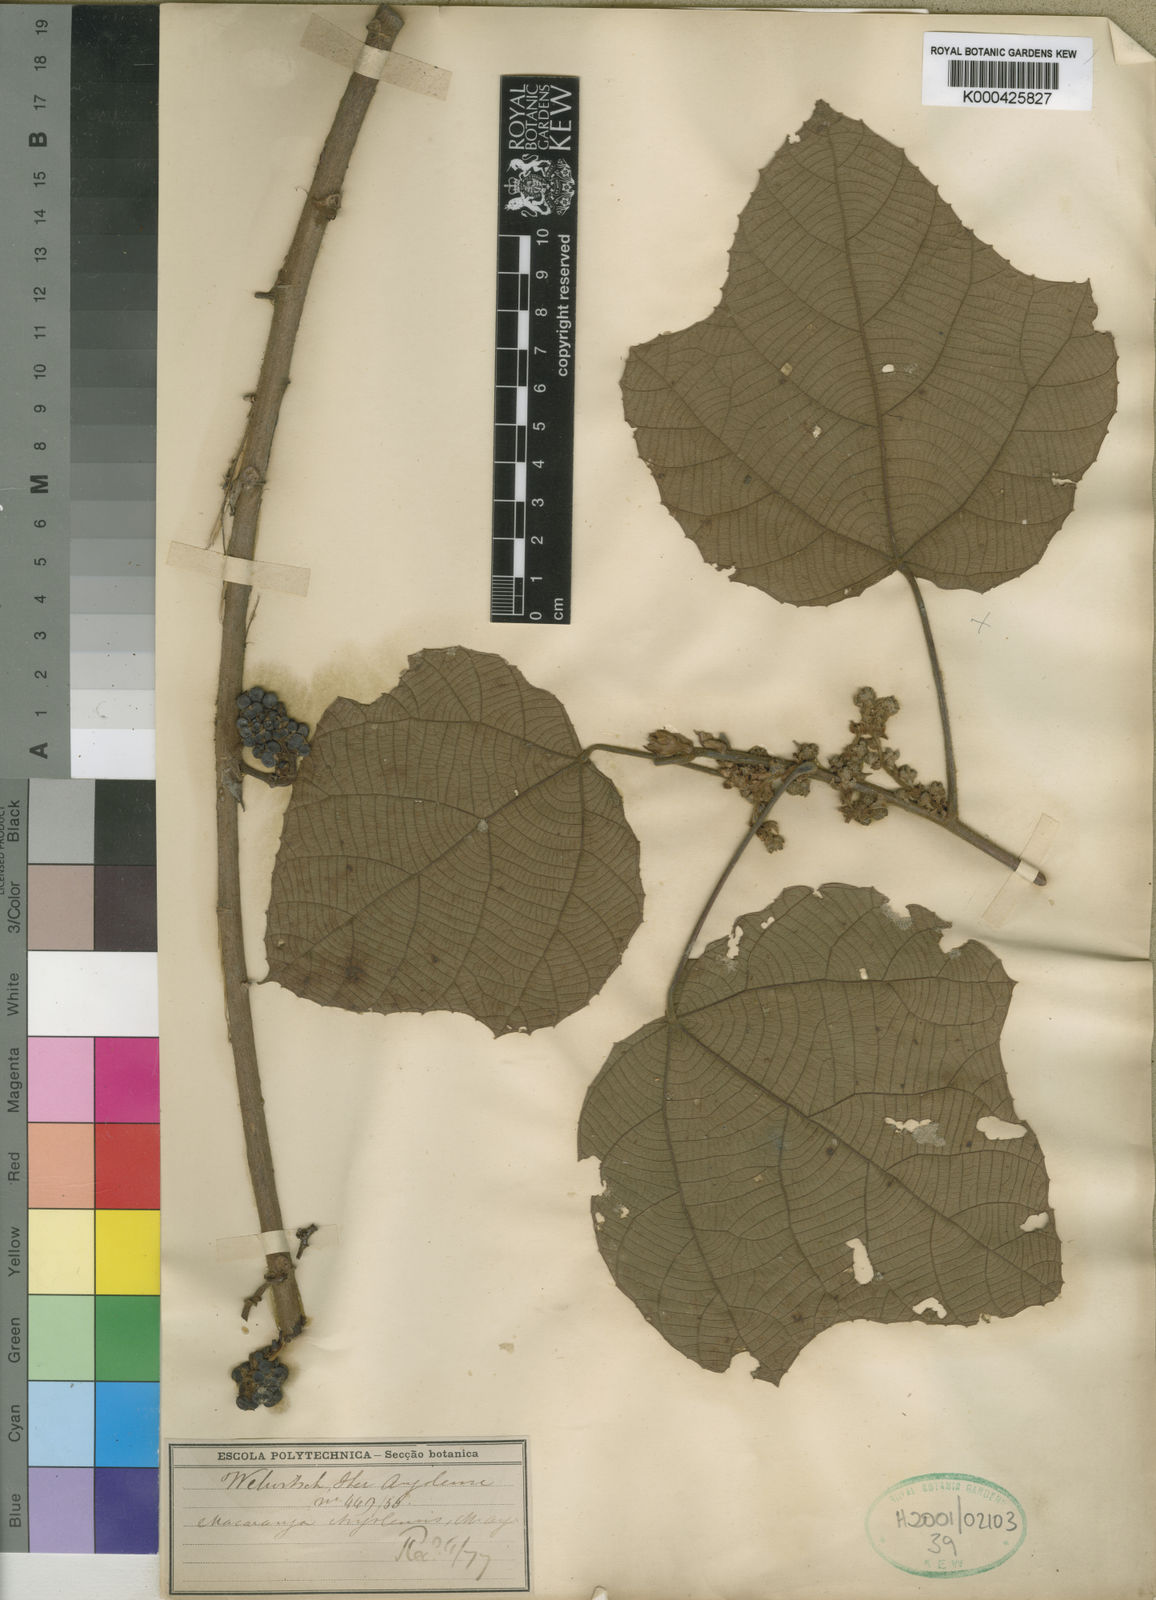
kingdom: Plantae
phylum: Tracheophyta
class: Magnoliopsida
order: Malpighiales
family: Euphorbiaceae
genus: Macaranga
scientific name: Macaranga
